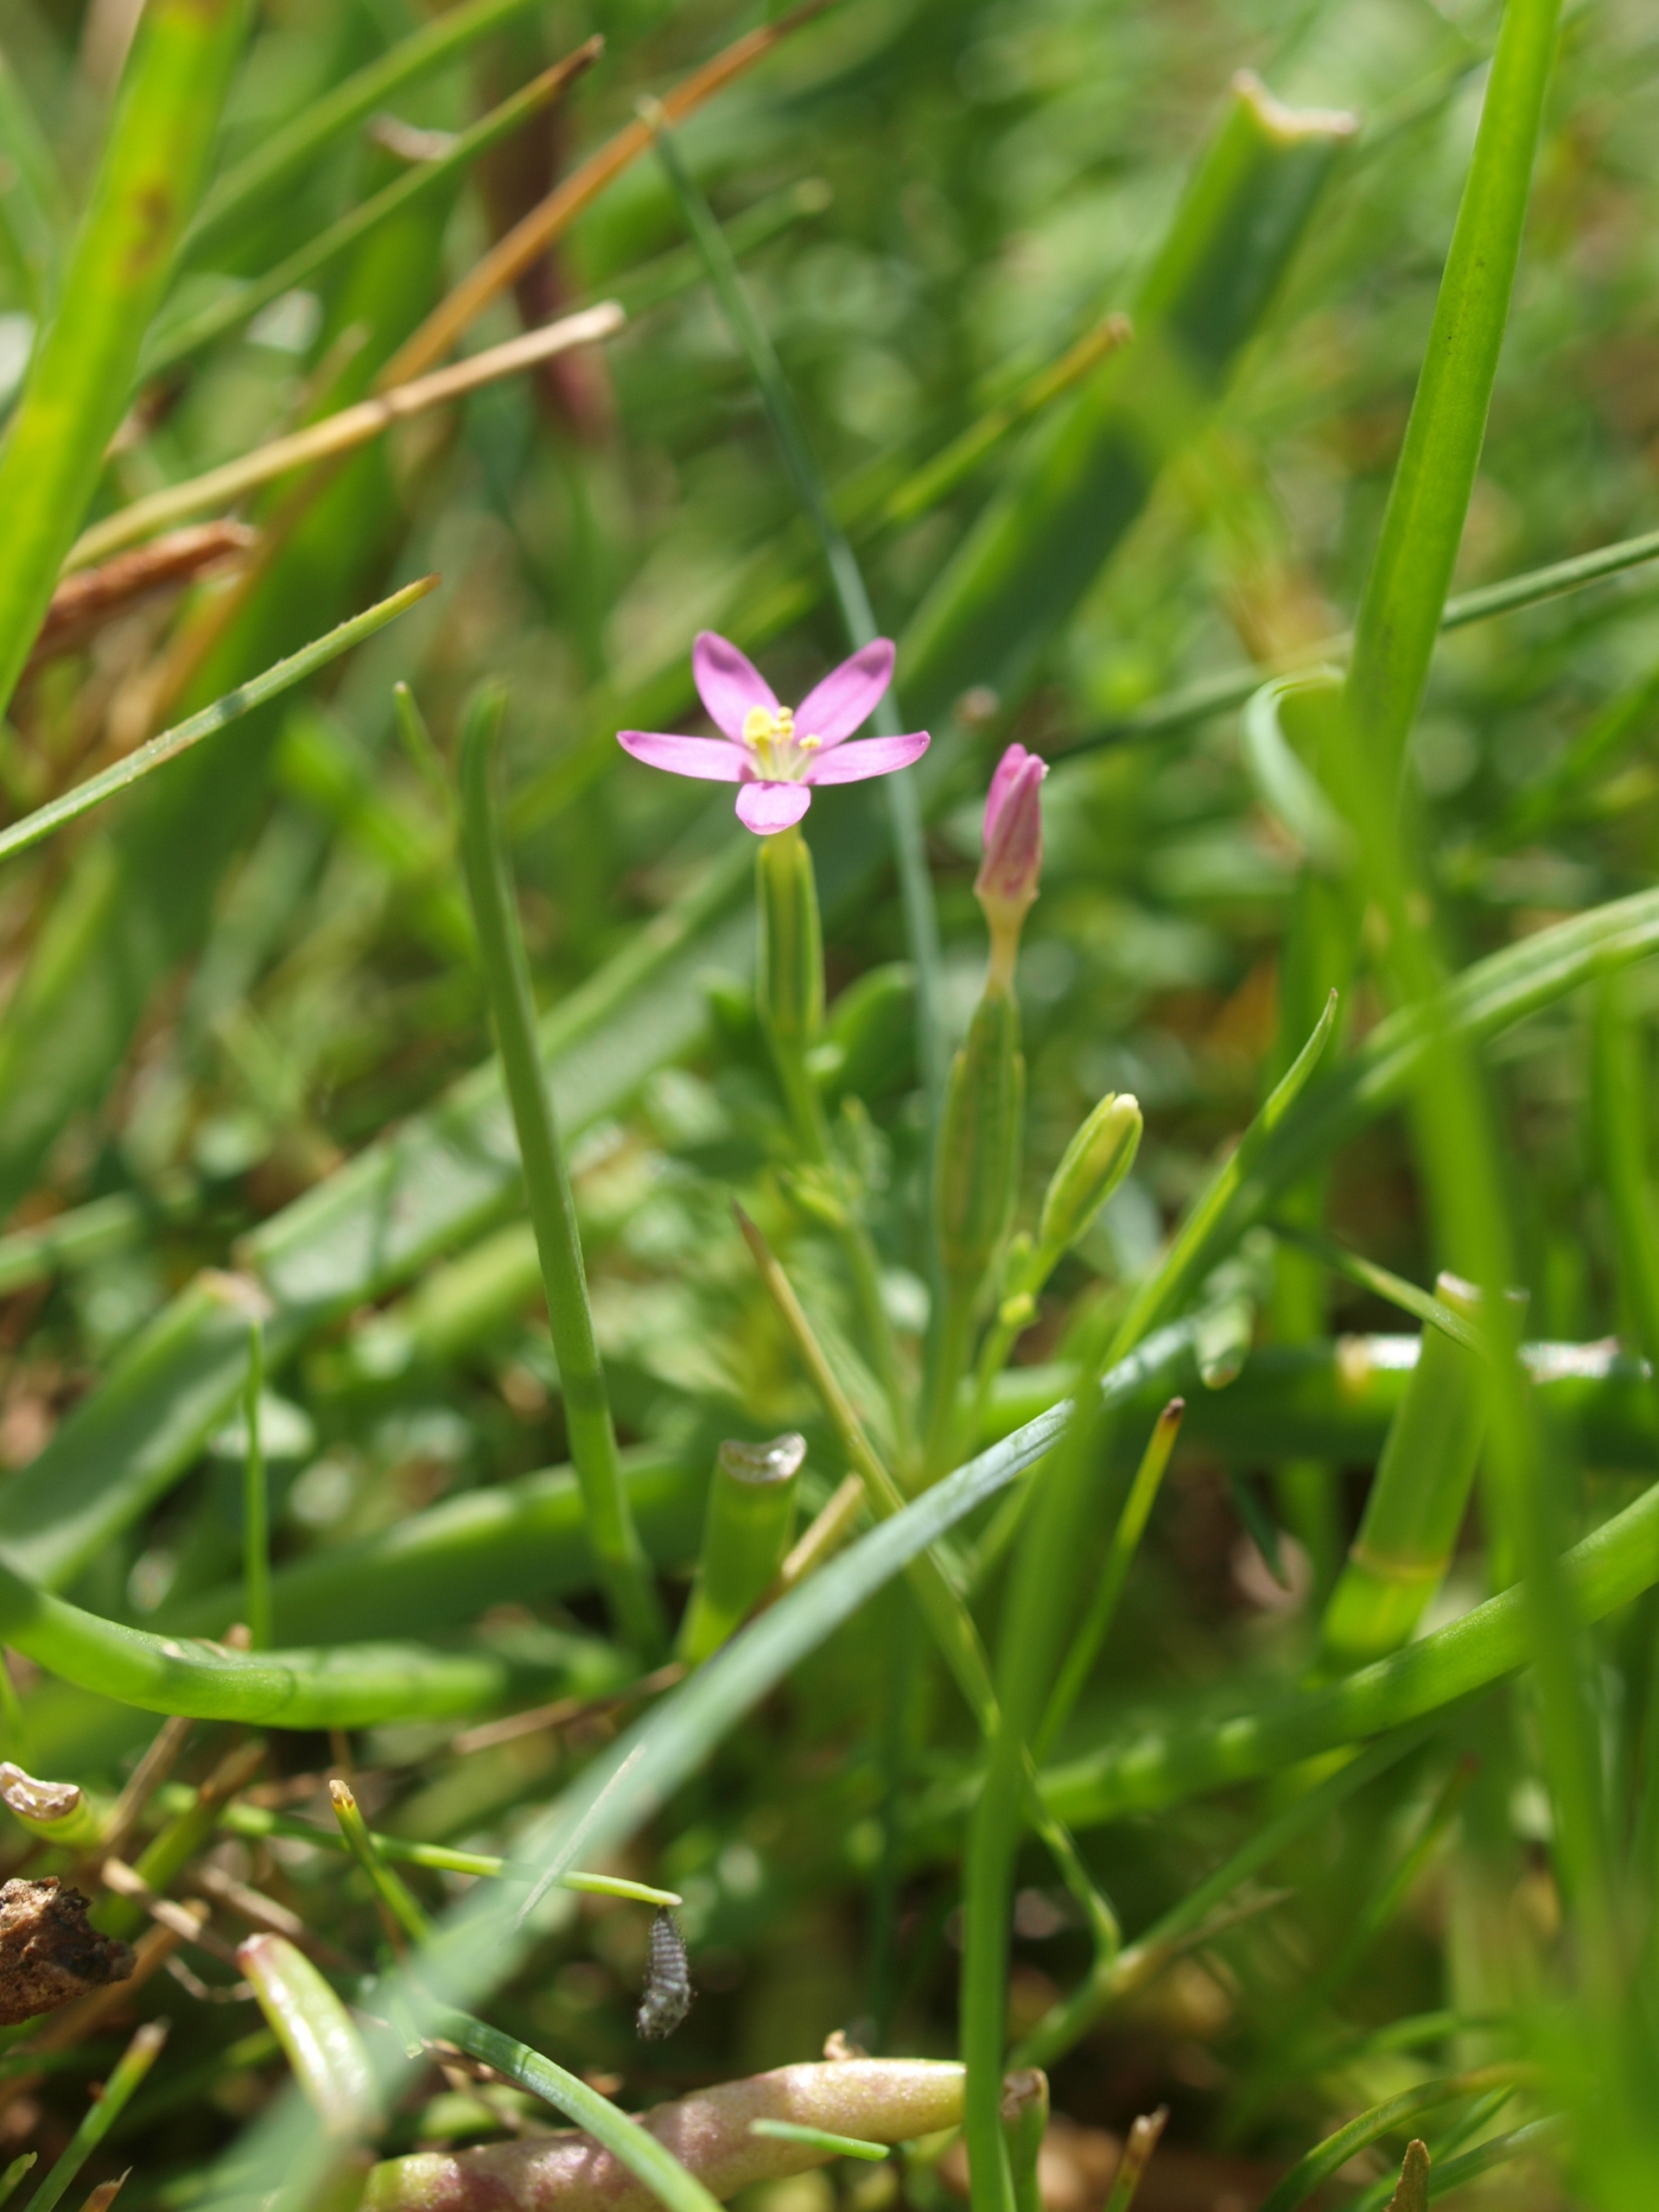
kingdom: Plantae
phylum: Tracheophyta
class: Magnoliopsida
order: Gentianales
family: Gentianaceae
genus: Centaurium
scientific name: Centaurium pulchellum
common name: Liden tusindgylden
